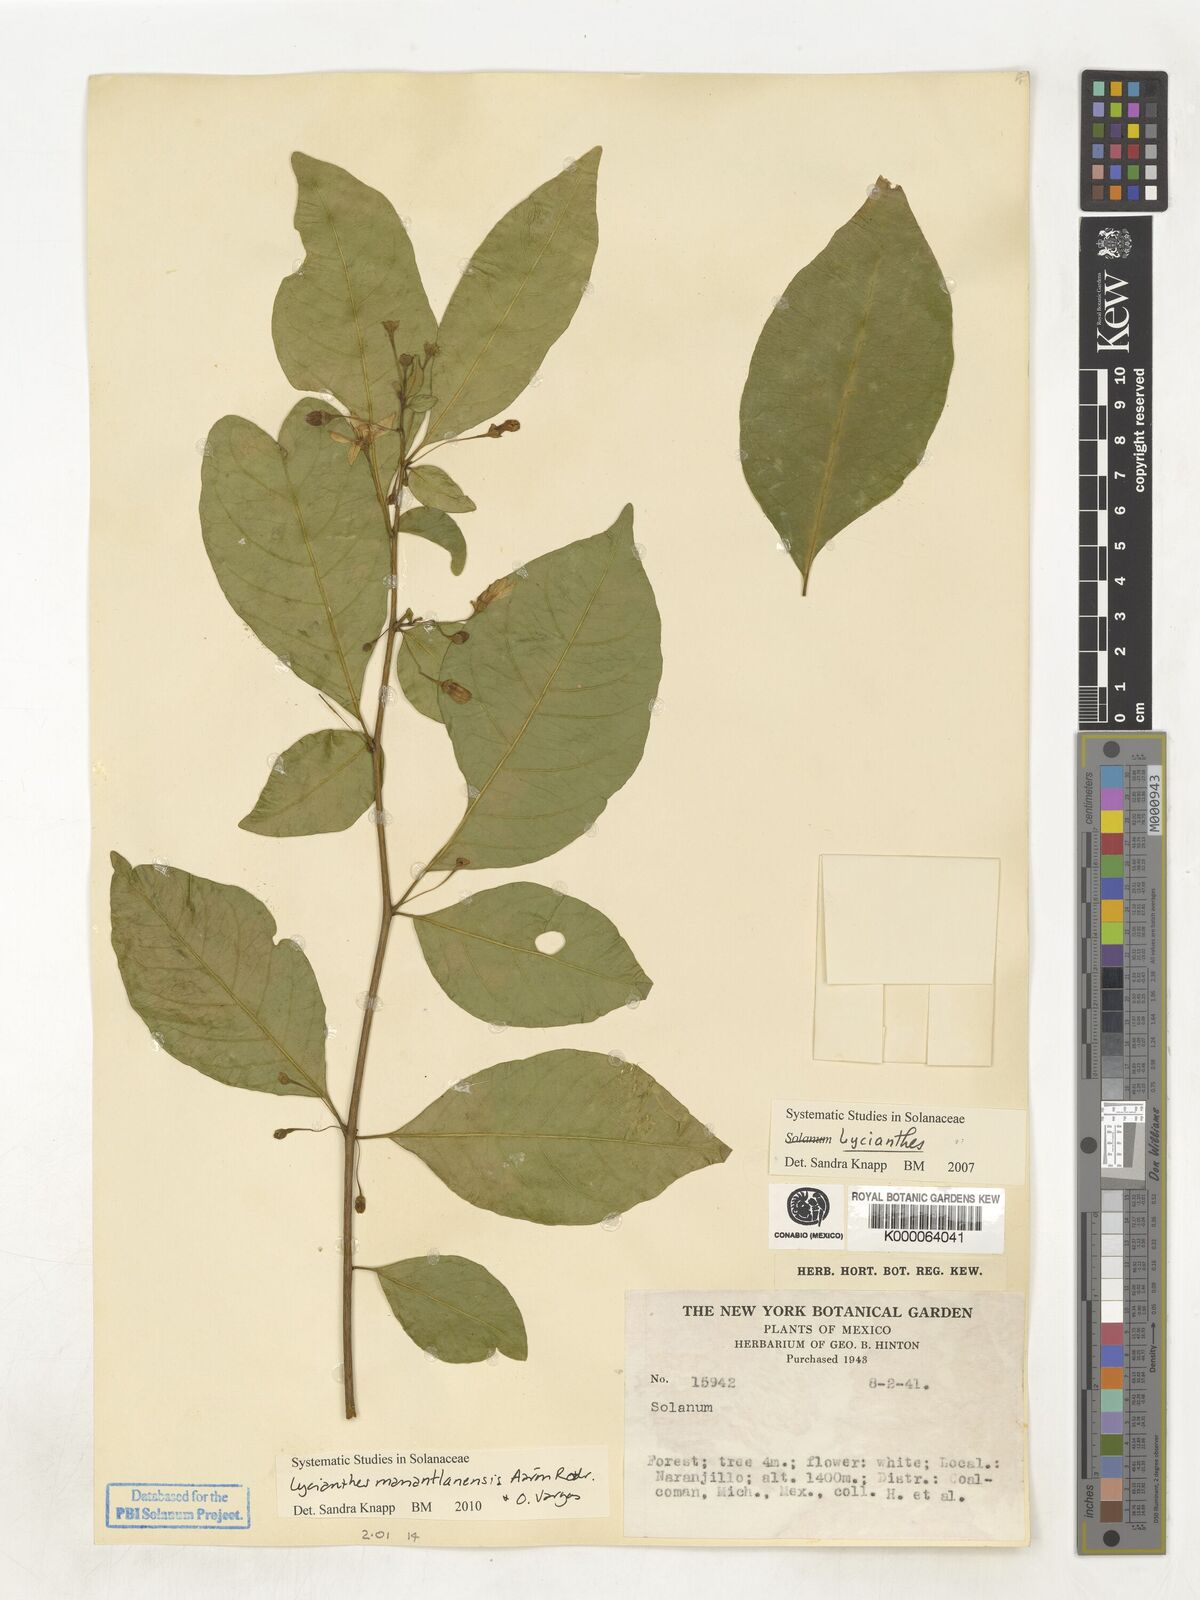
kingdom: Plantae
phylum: Tracheophyta
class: Magnoliopsida
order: Solanales
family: Solanaceae
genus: Solanum
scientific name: Solanum
